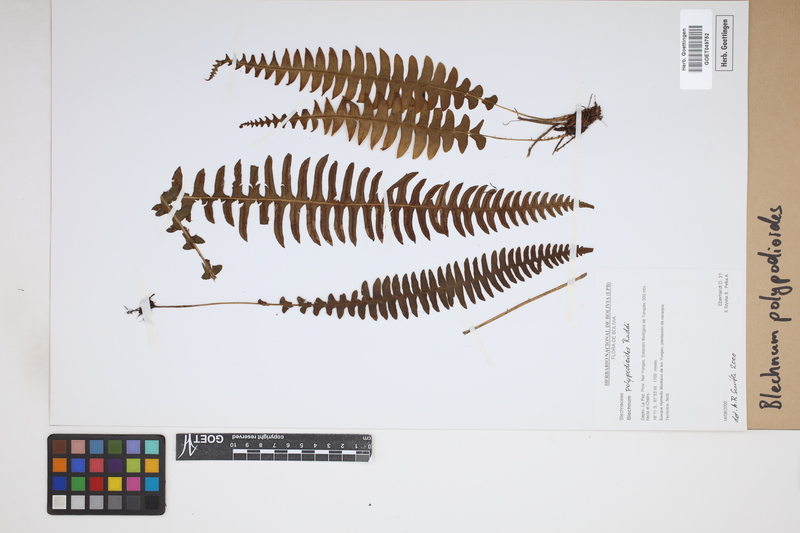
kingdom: Plantae
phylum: Tracheophyta
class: Polypodiopsida
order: Polypodiales
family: Blechnaceae
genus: Blechnum
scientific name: Blechnum polypodioides
